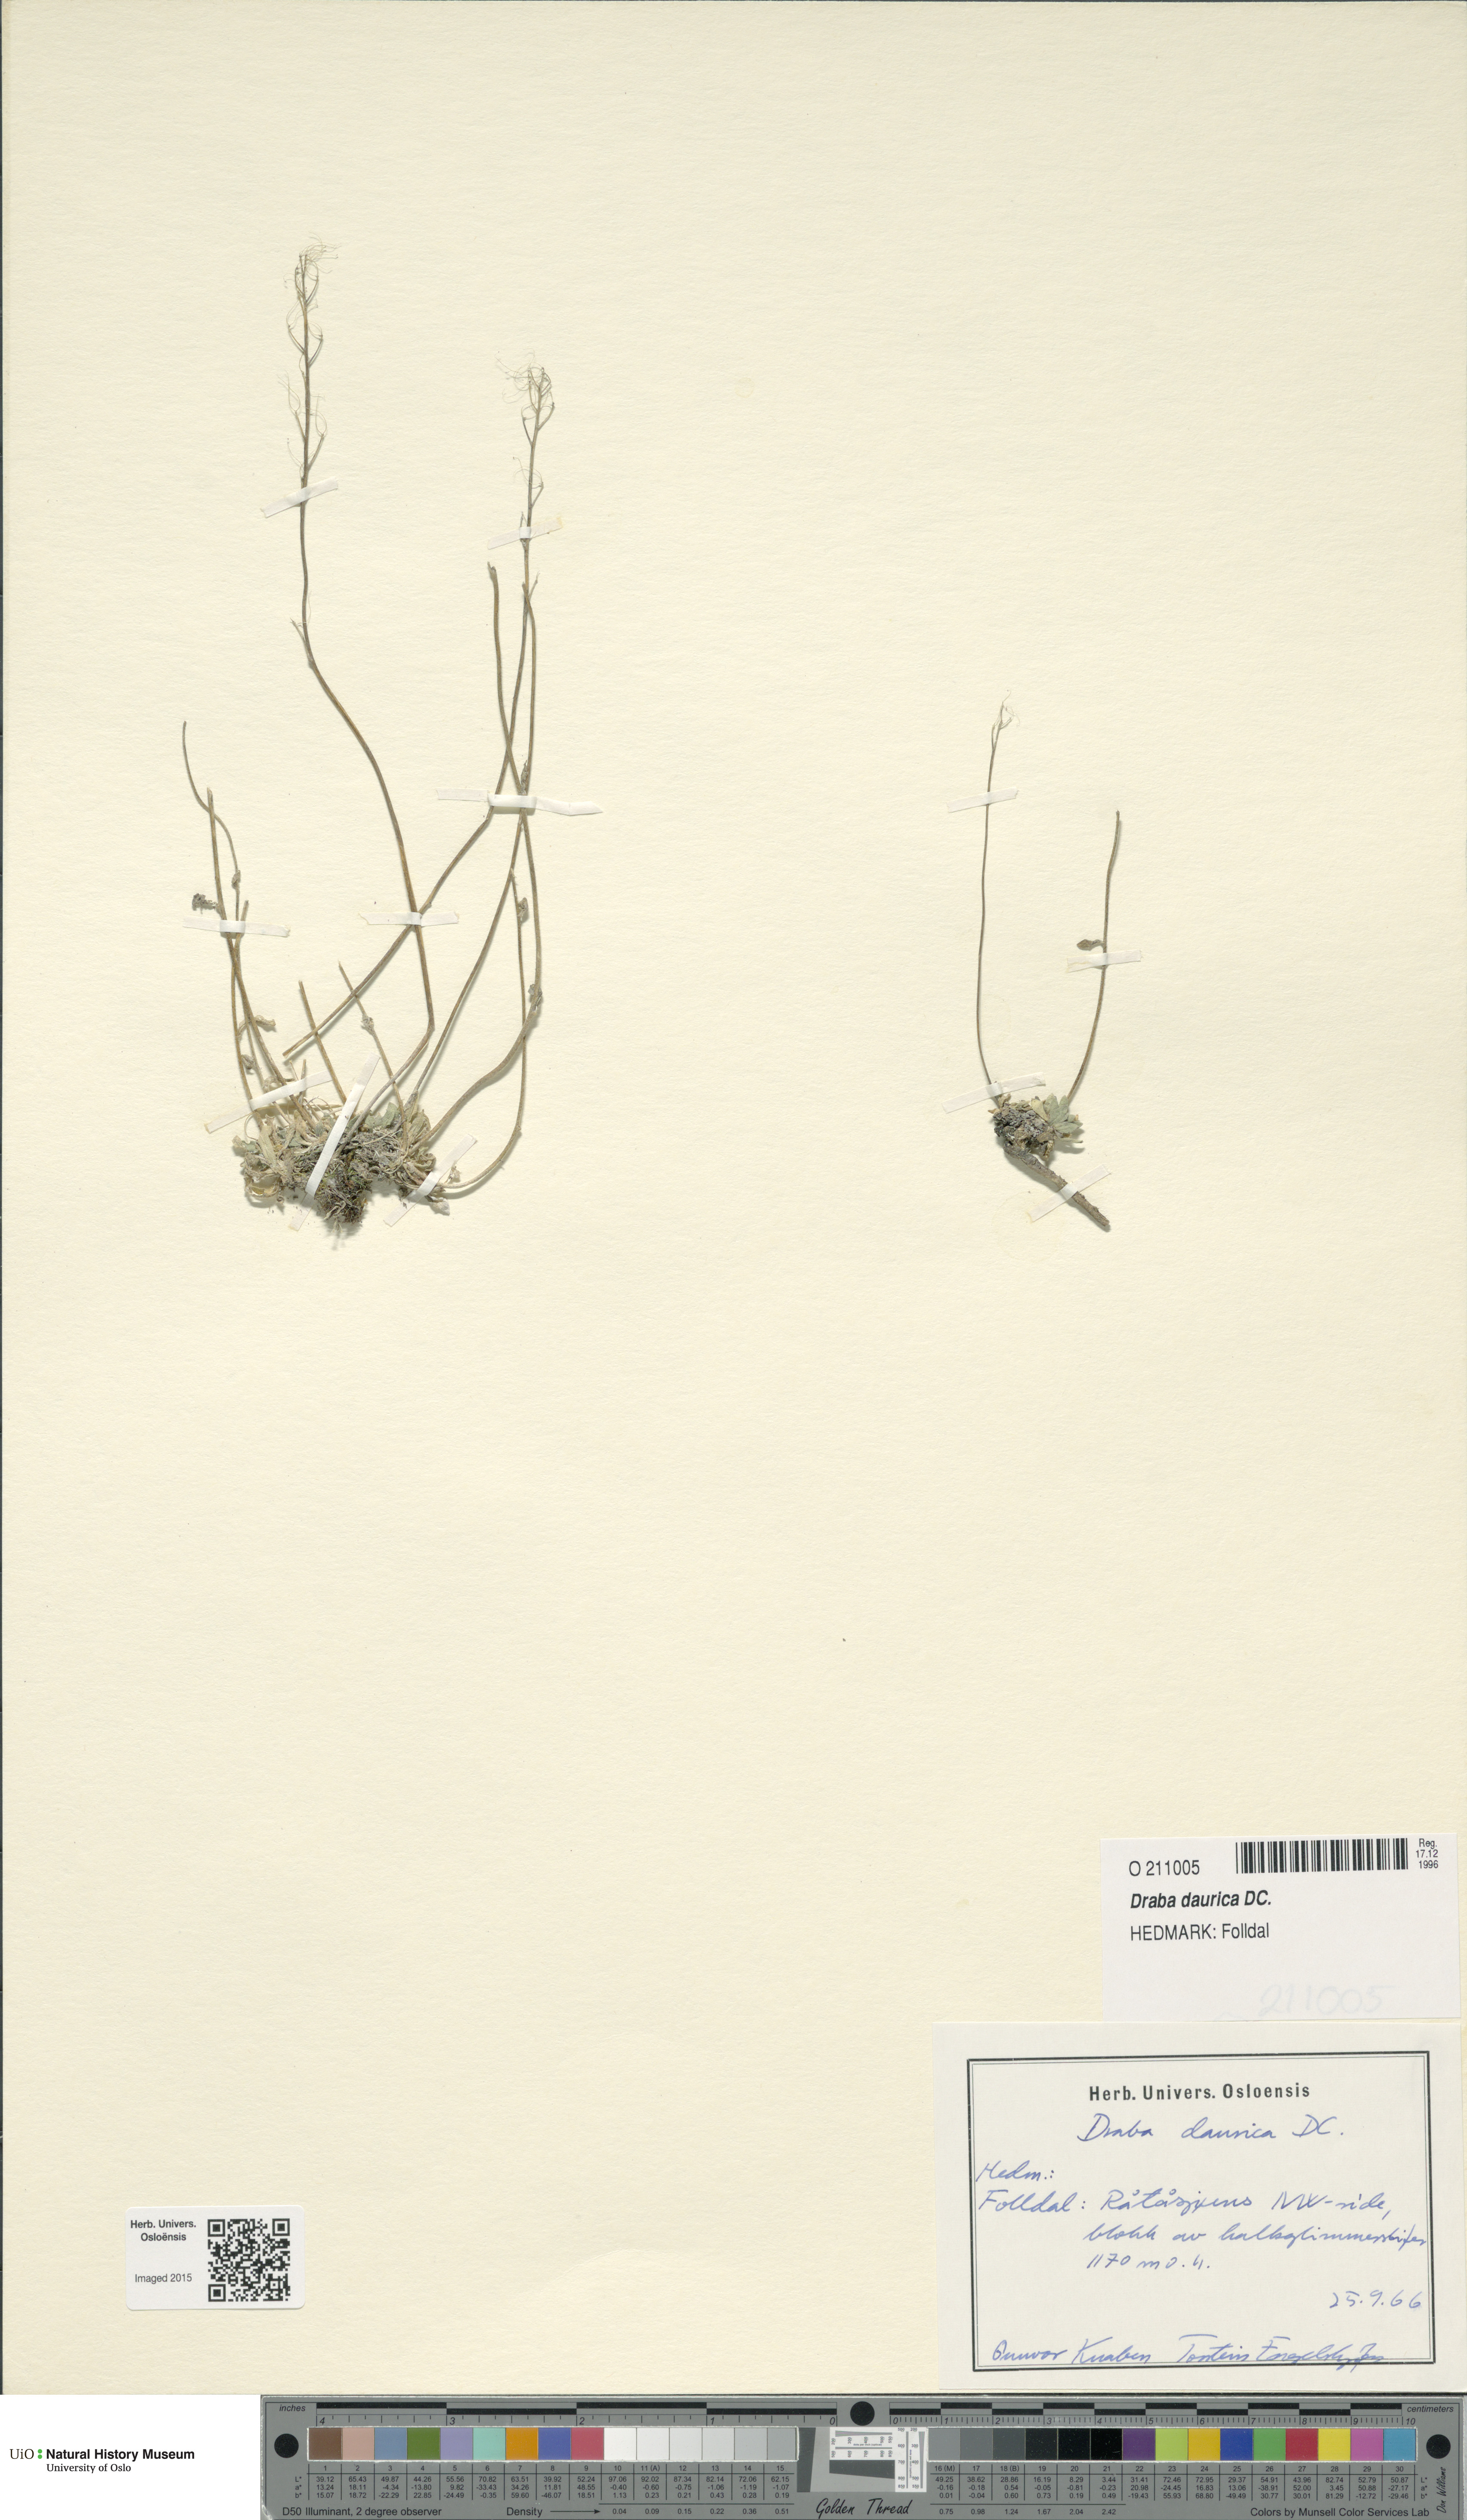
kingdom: Plantae
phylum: Tracheophyta
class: Magnoliopsida
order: Brassicales
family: Brassicaceae
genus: Draba
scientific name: Draba glabella
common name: Glaucous draba
